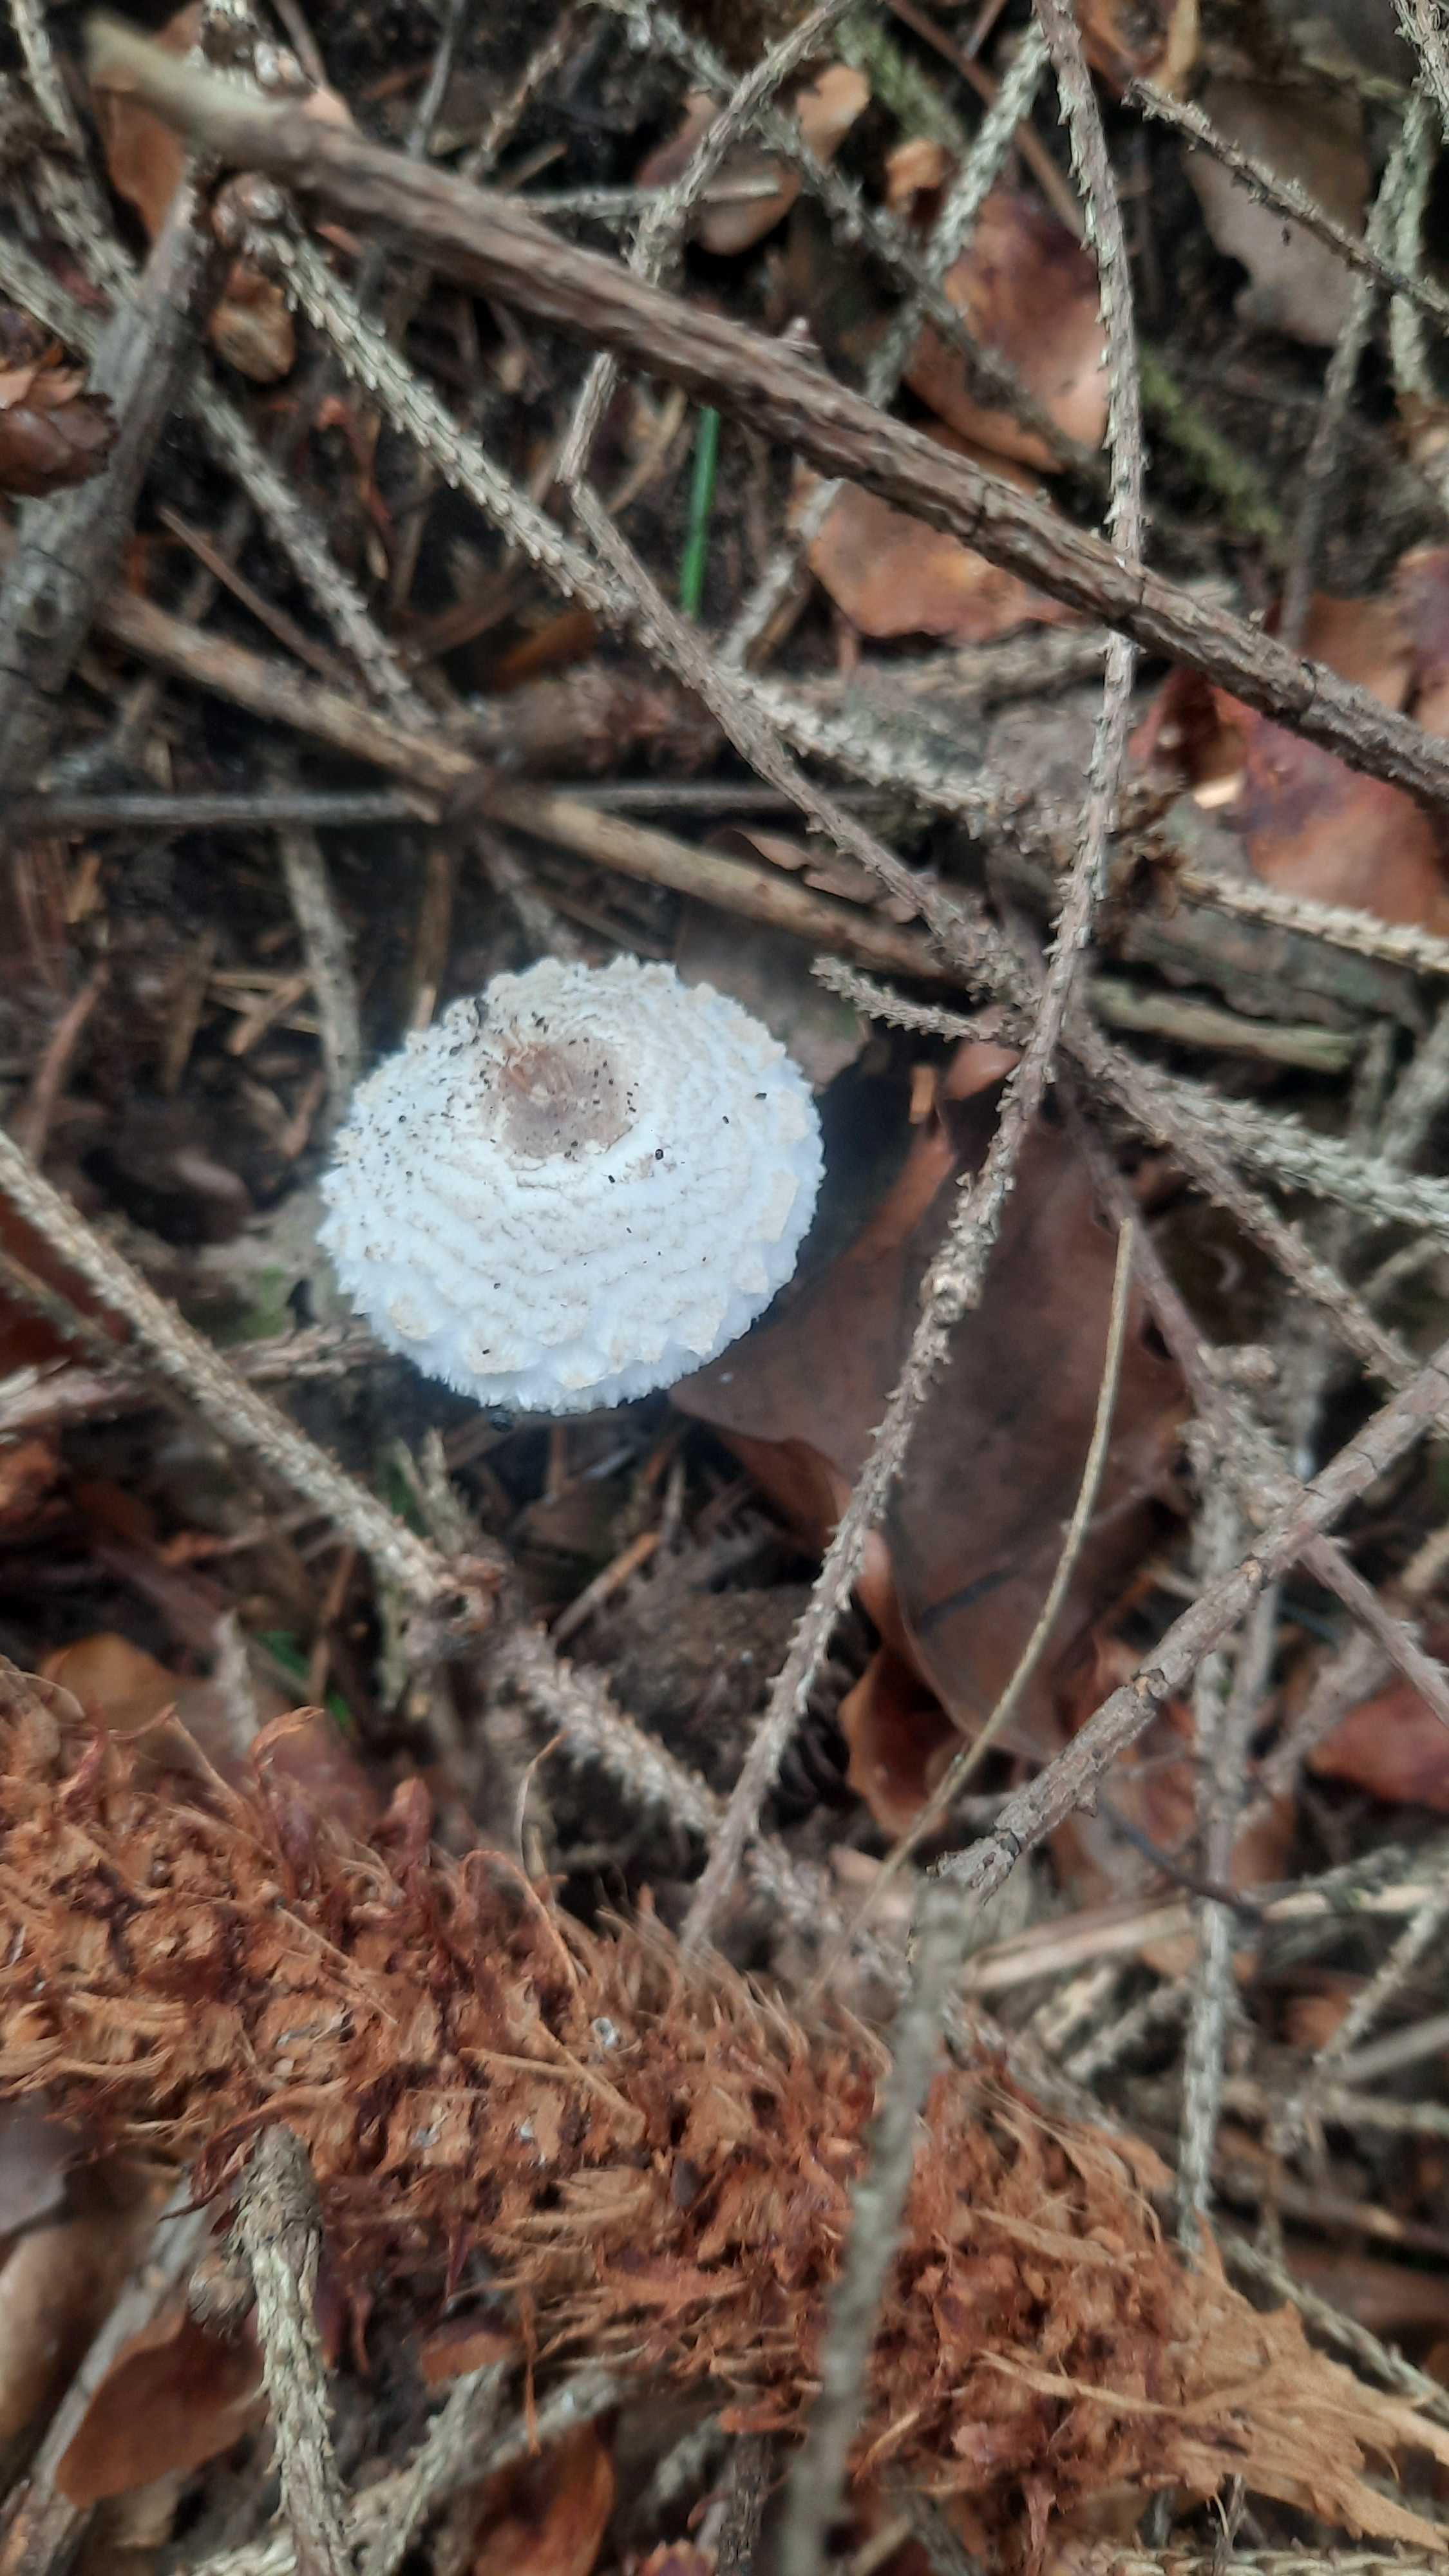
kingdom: Fungi
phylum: Basidiomycota
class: Agaricomycetes
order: Agaricales
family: Agaricaceae
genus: Leucoagaricus
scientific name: Leucoagaricus nympharum
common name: gran-silkehat
